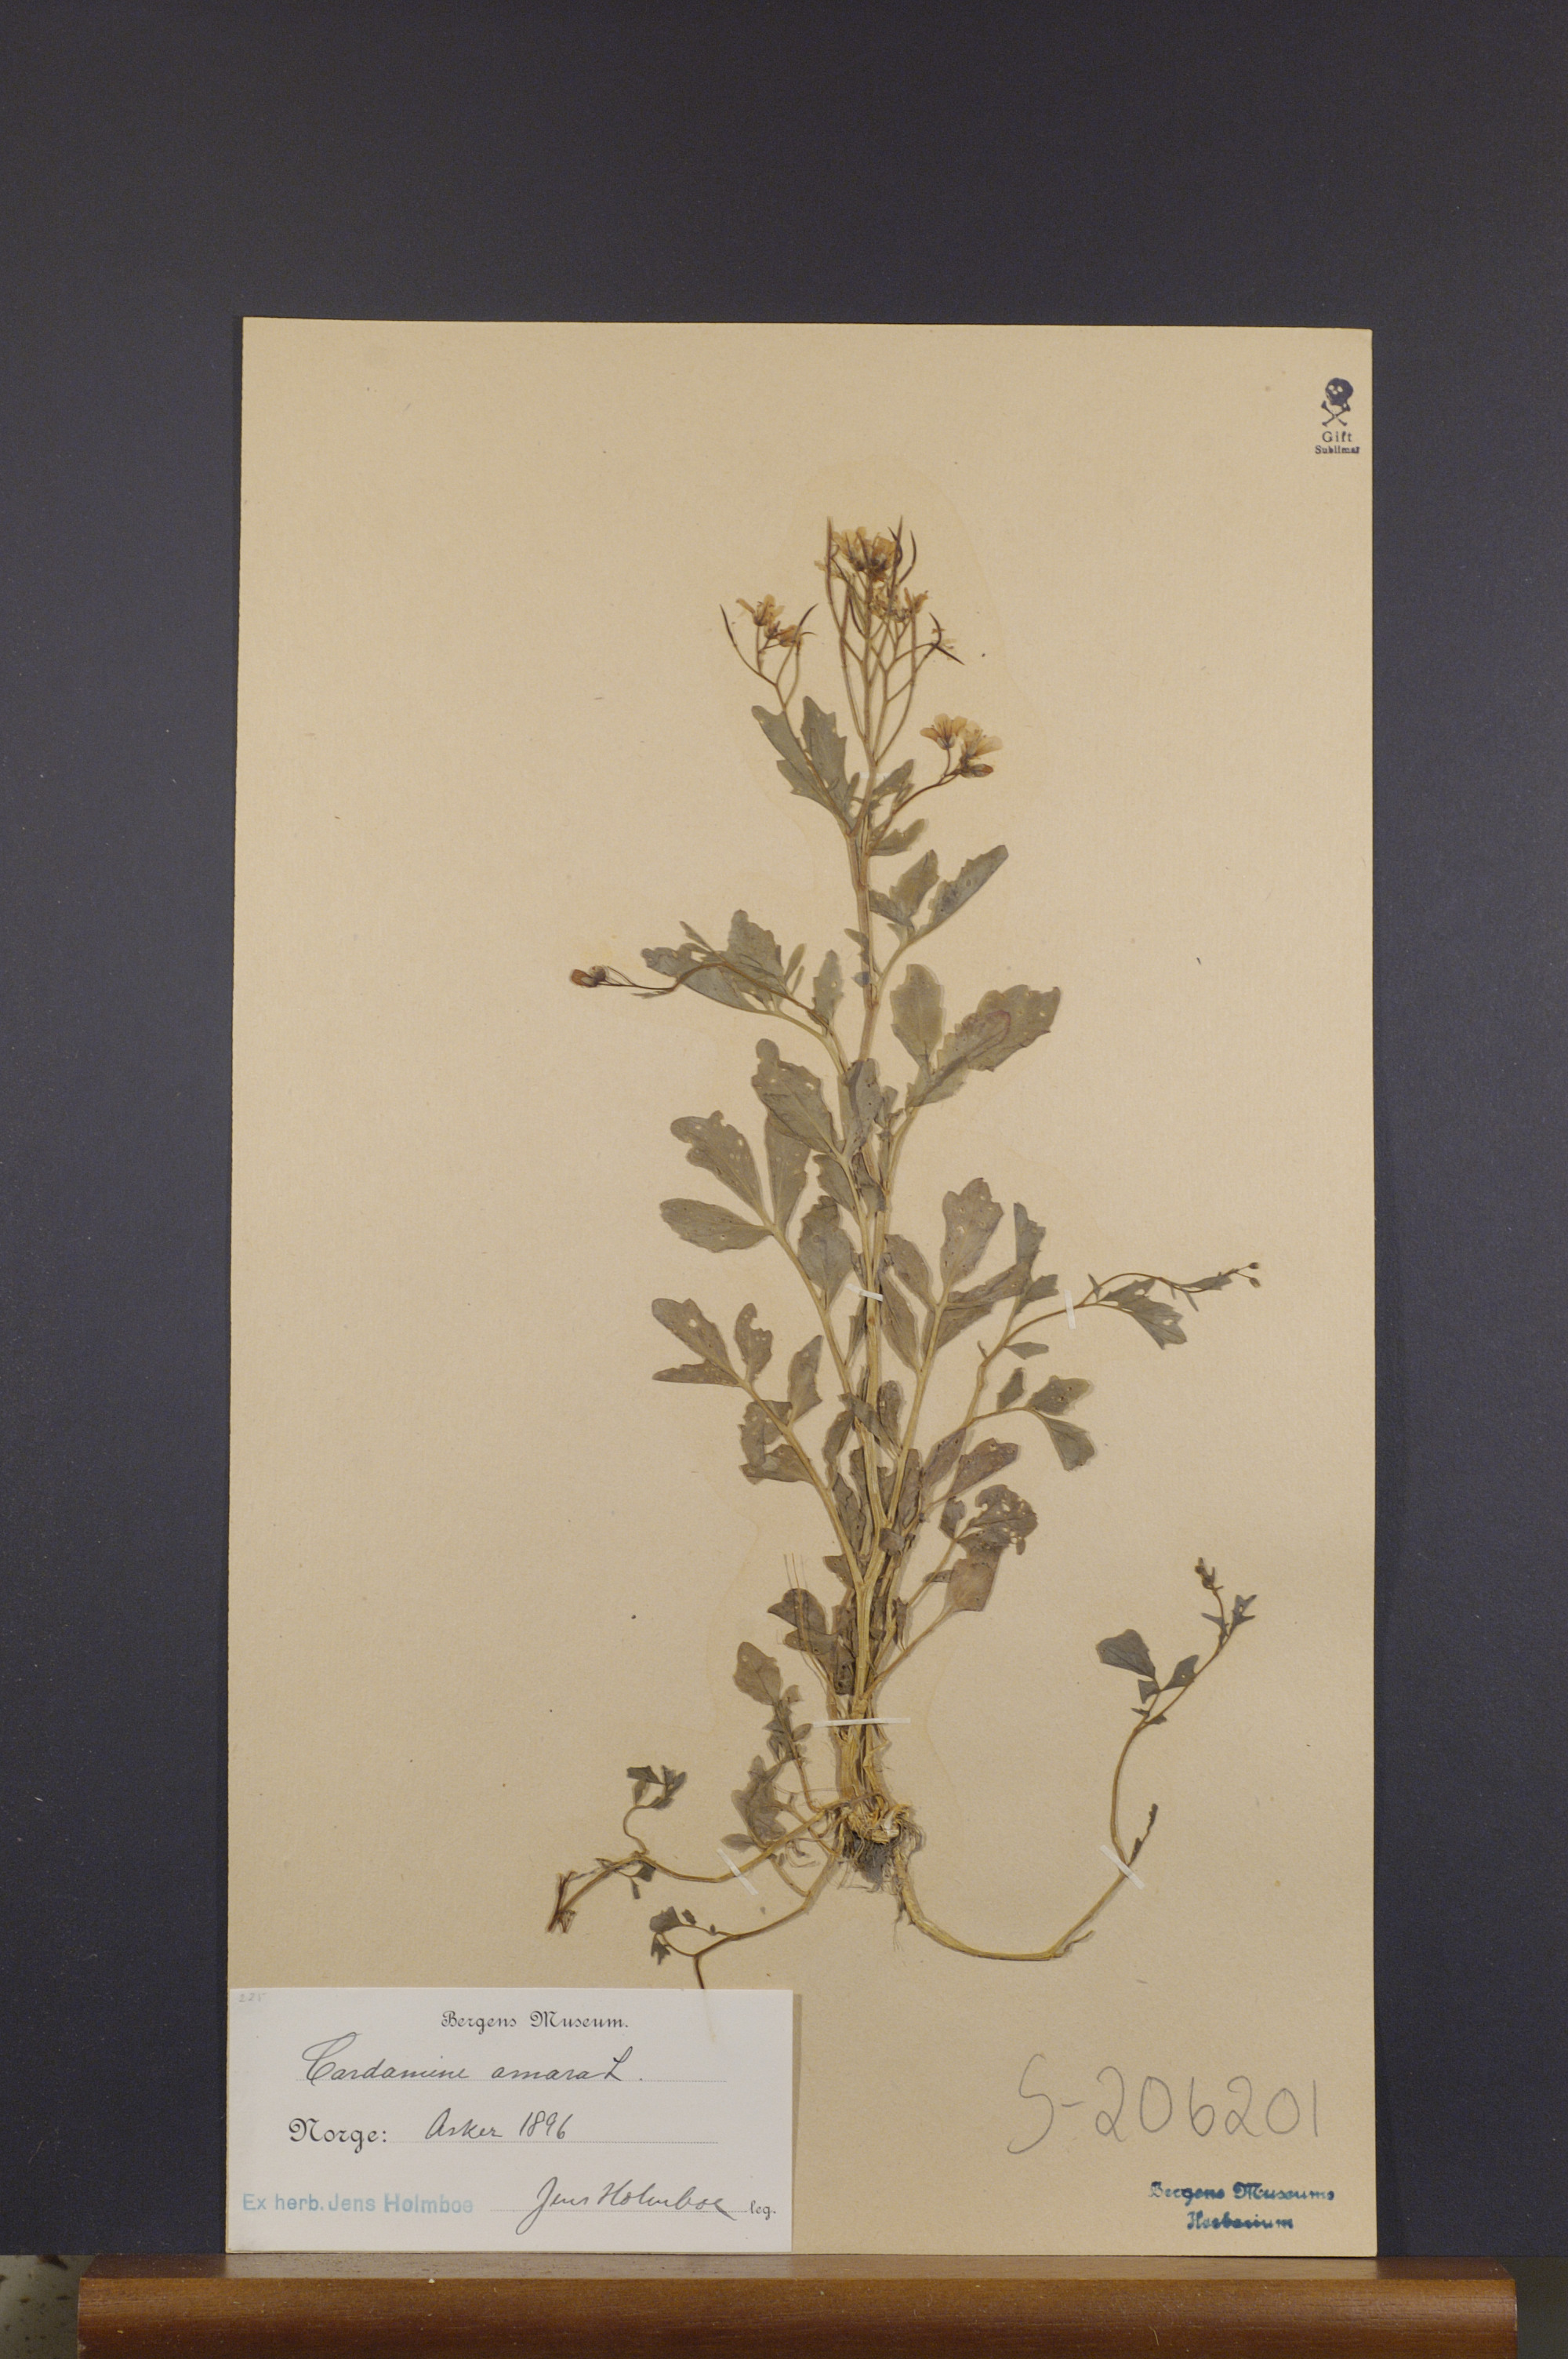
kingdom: Plantae
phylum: Tracheophyta
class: Magnoliopsida
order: Brassicales
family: Brassicaceae
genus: Cardamine
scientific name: Cardamine amara
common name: Large bitter-cress
